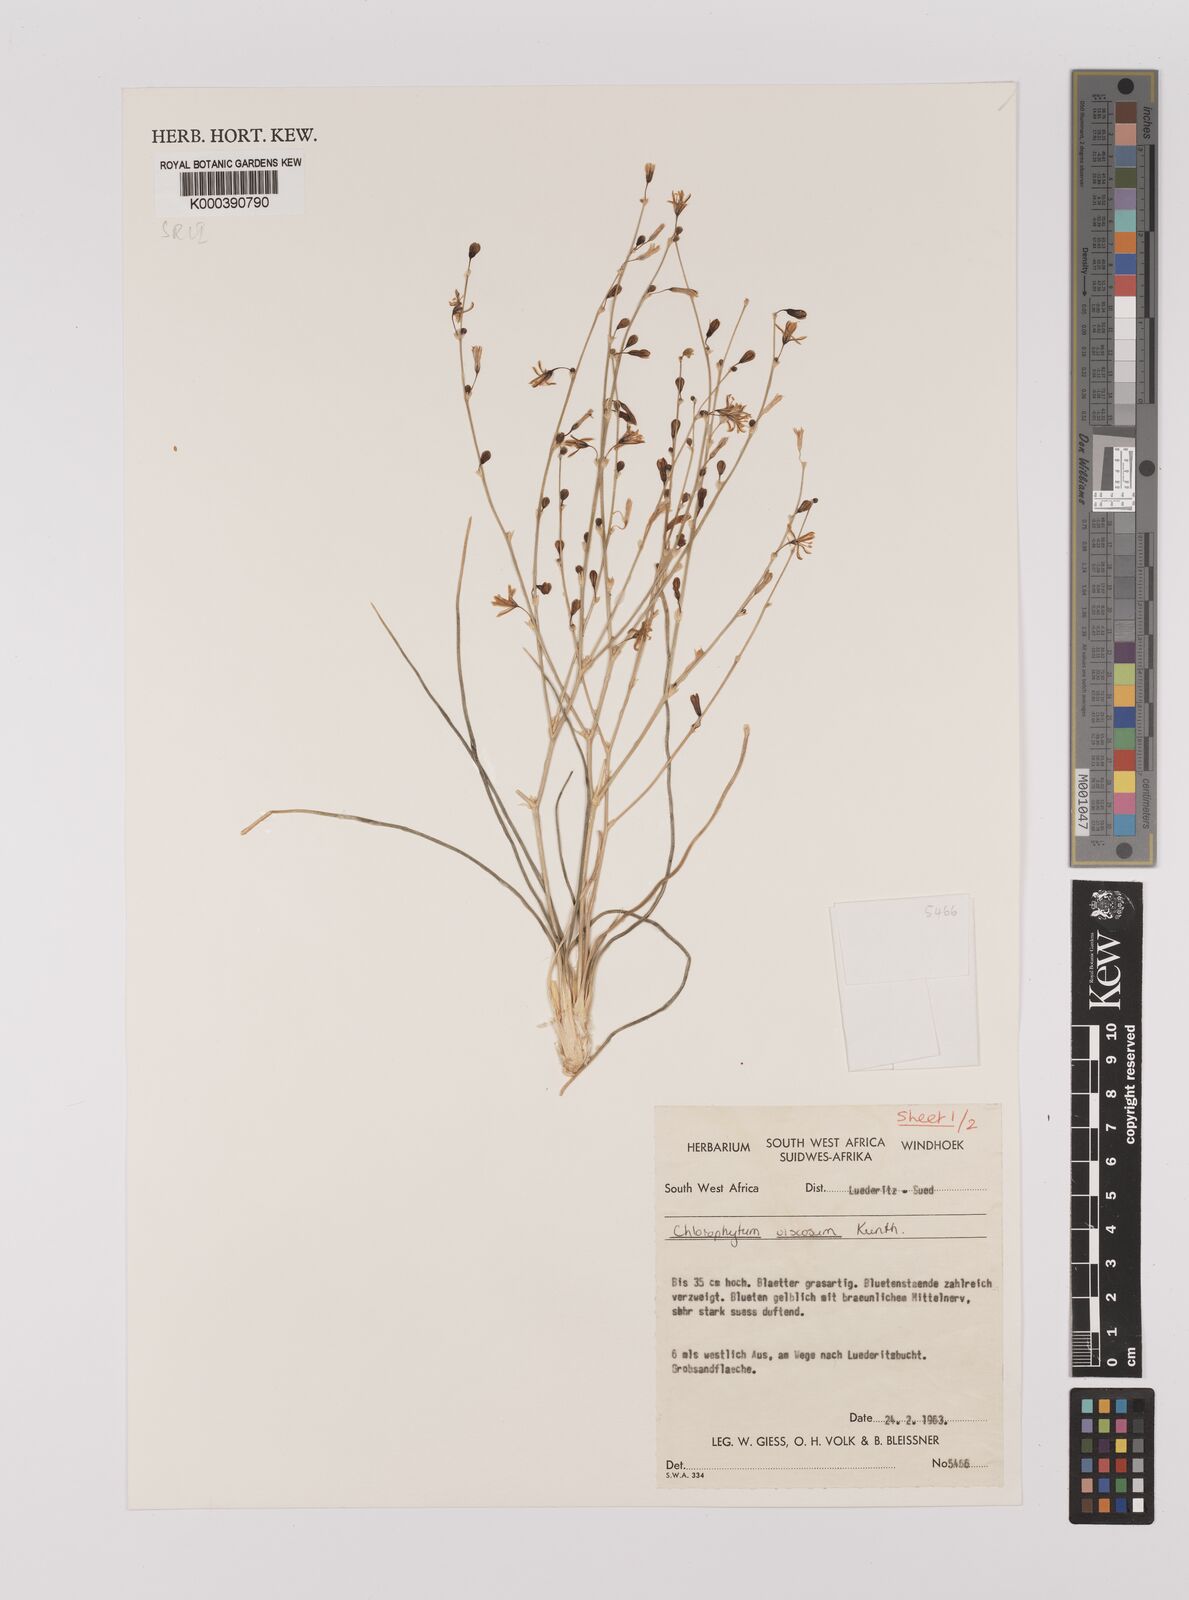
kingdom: Plantae
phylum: Tracheophyta
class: Liliopsida
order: Asparagales
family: Asparagaceae
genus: Chlorophytum
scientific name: Chlorophytum viscosum
